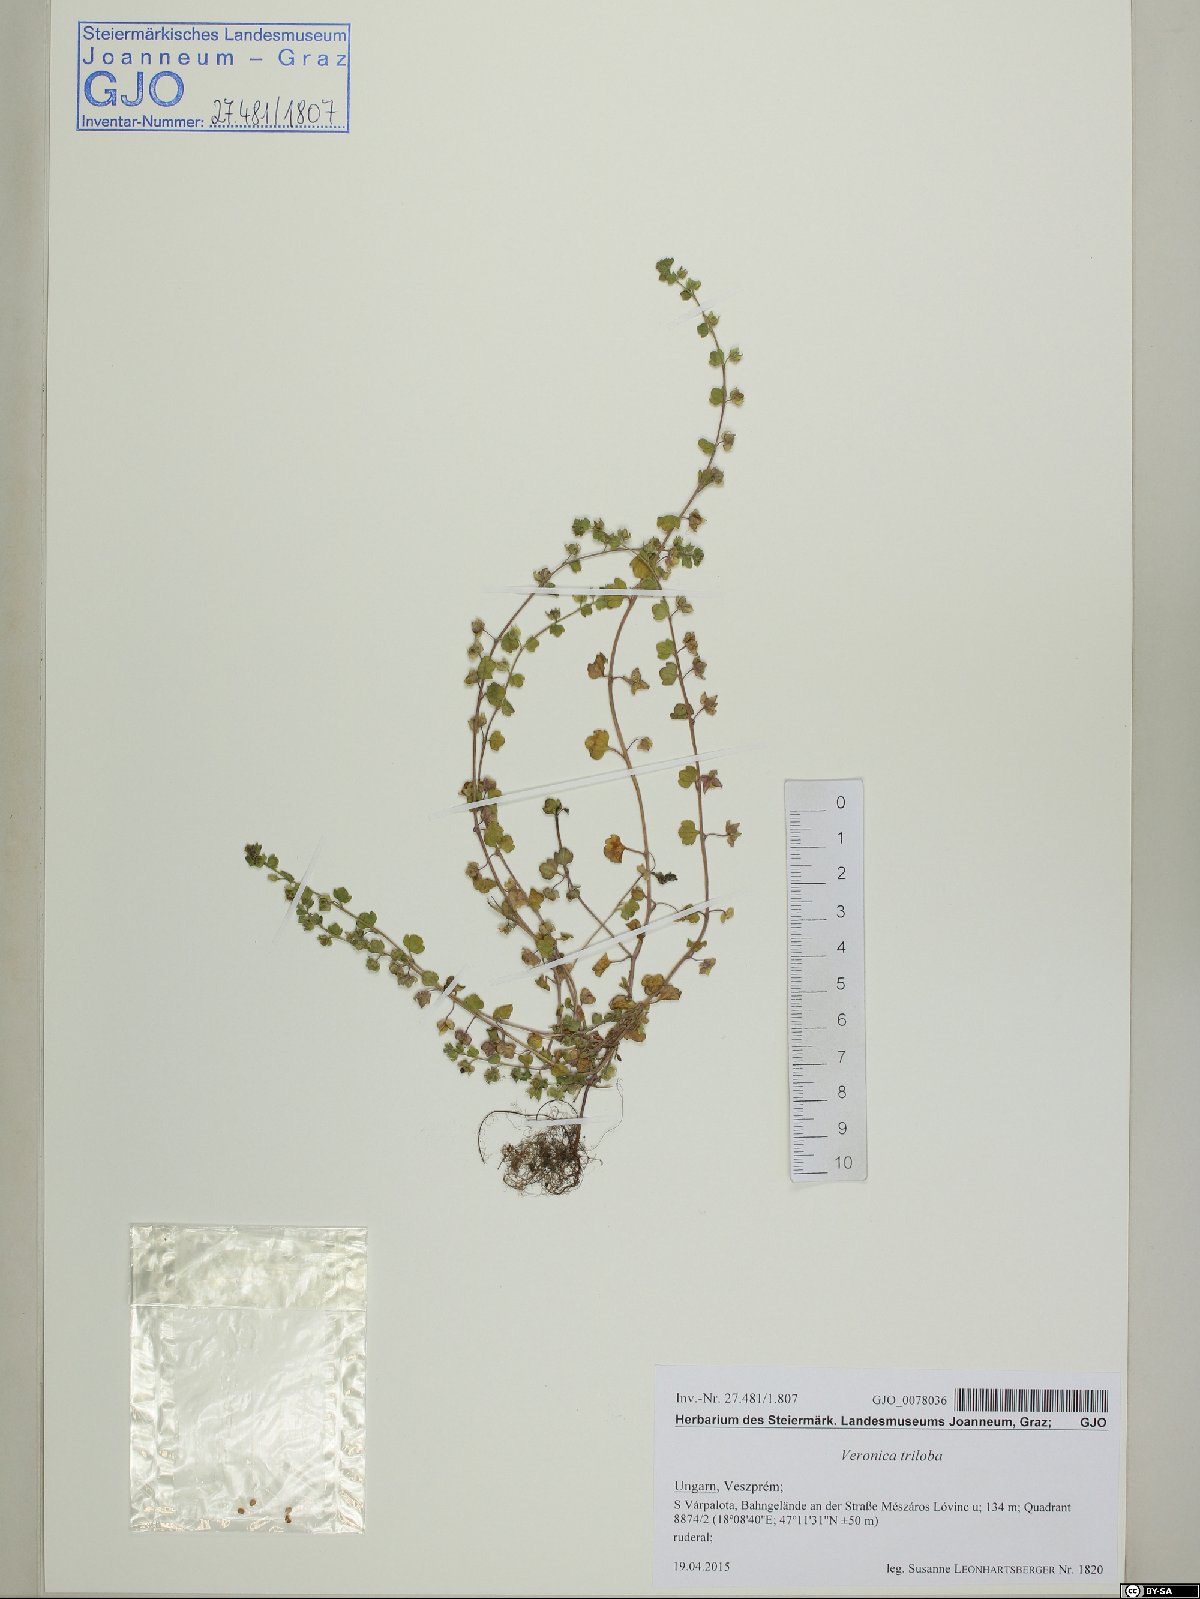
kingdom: Plantae
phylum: Tracheophyta
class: Magnoliopsida
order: Lamiales
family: Plantaginaceae
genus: Veronica
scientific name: Veronica triloba
